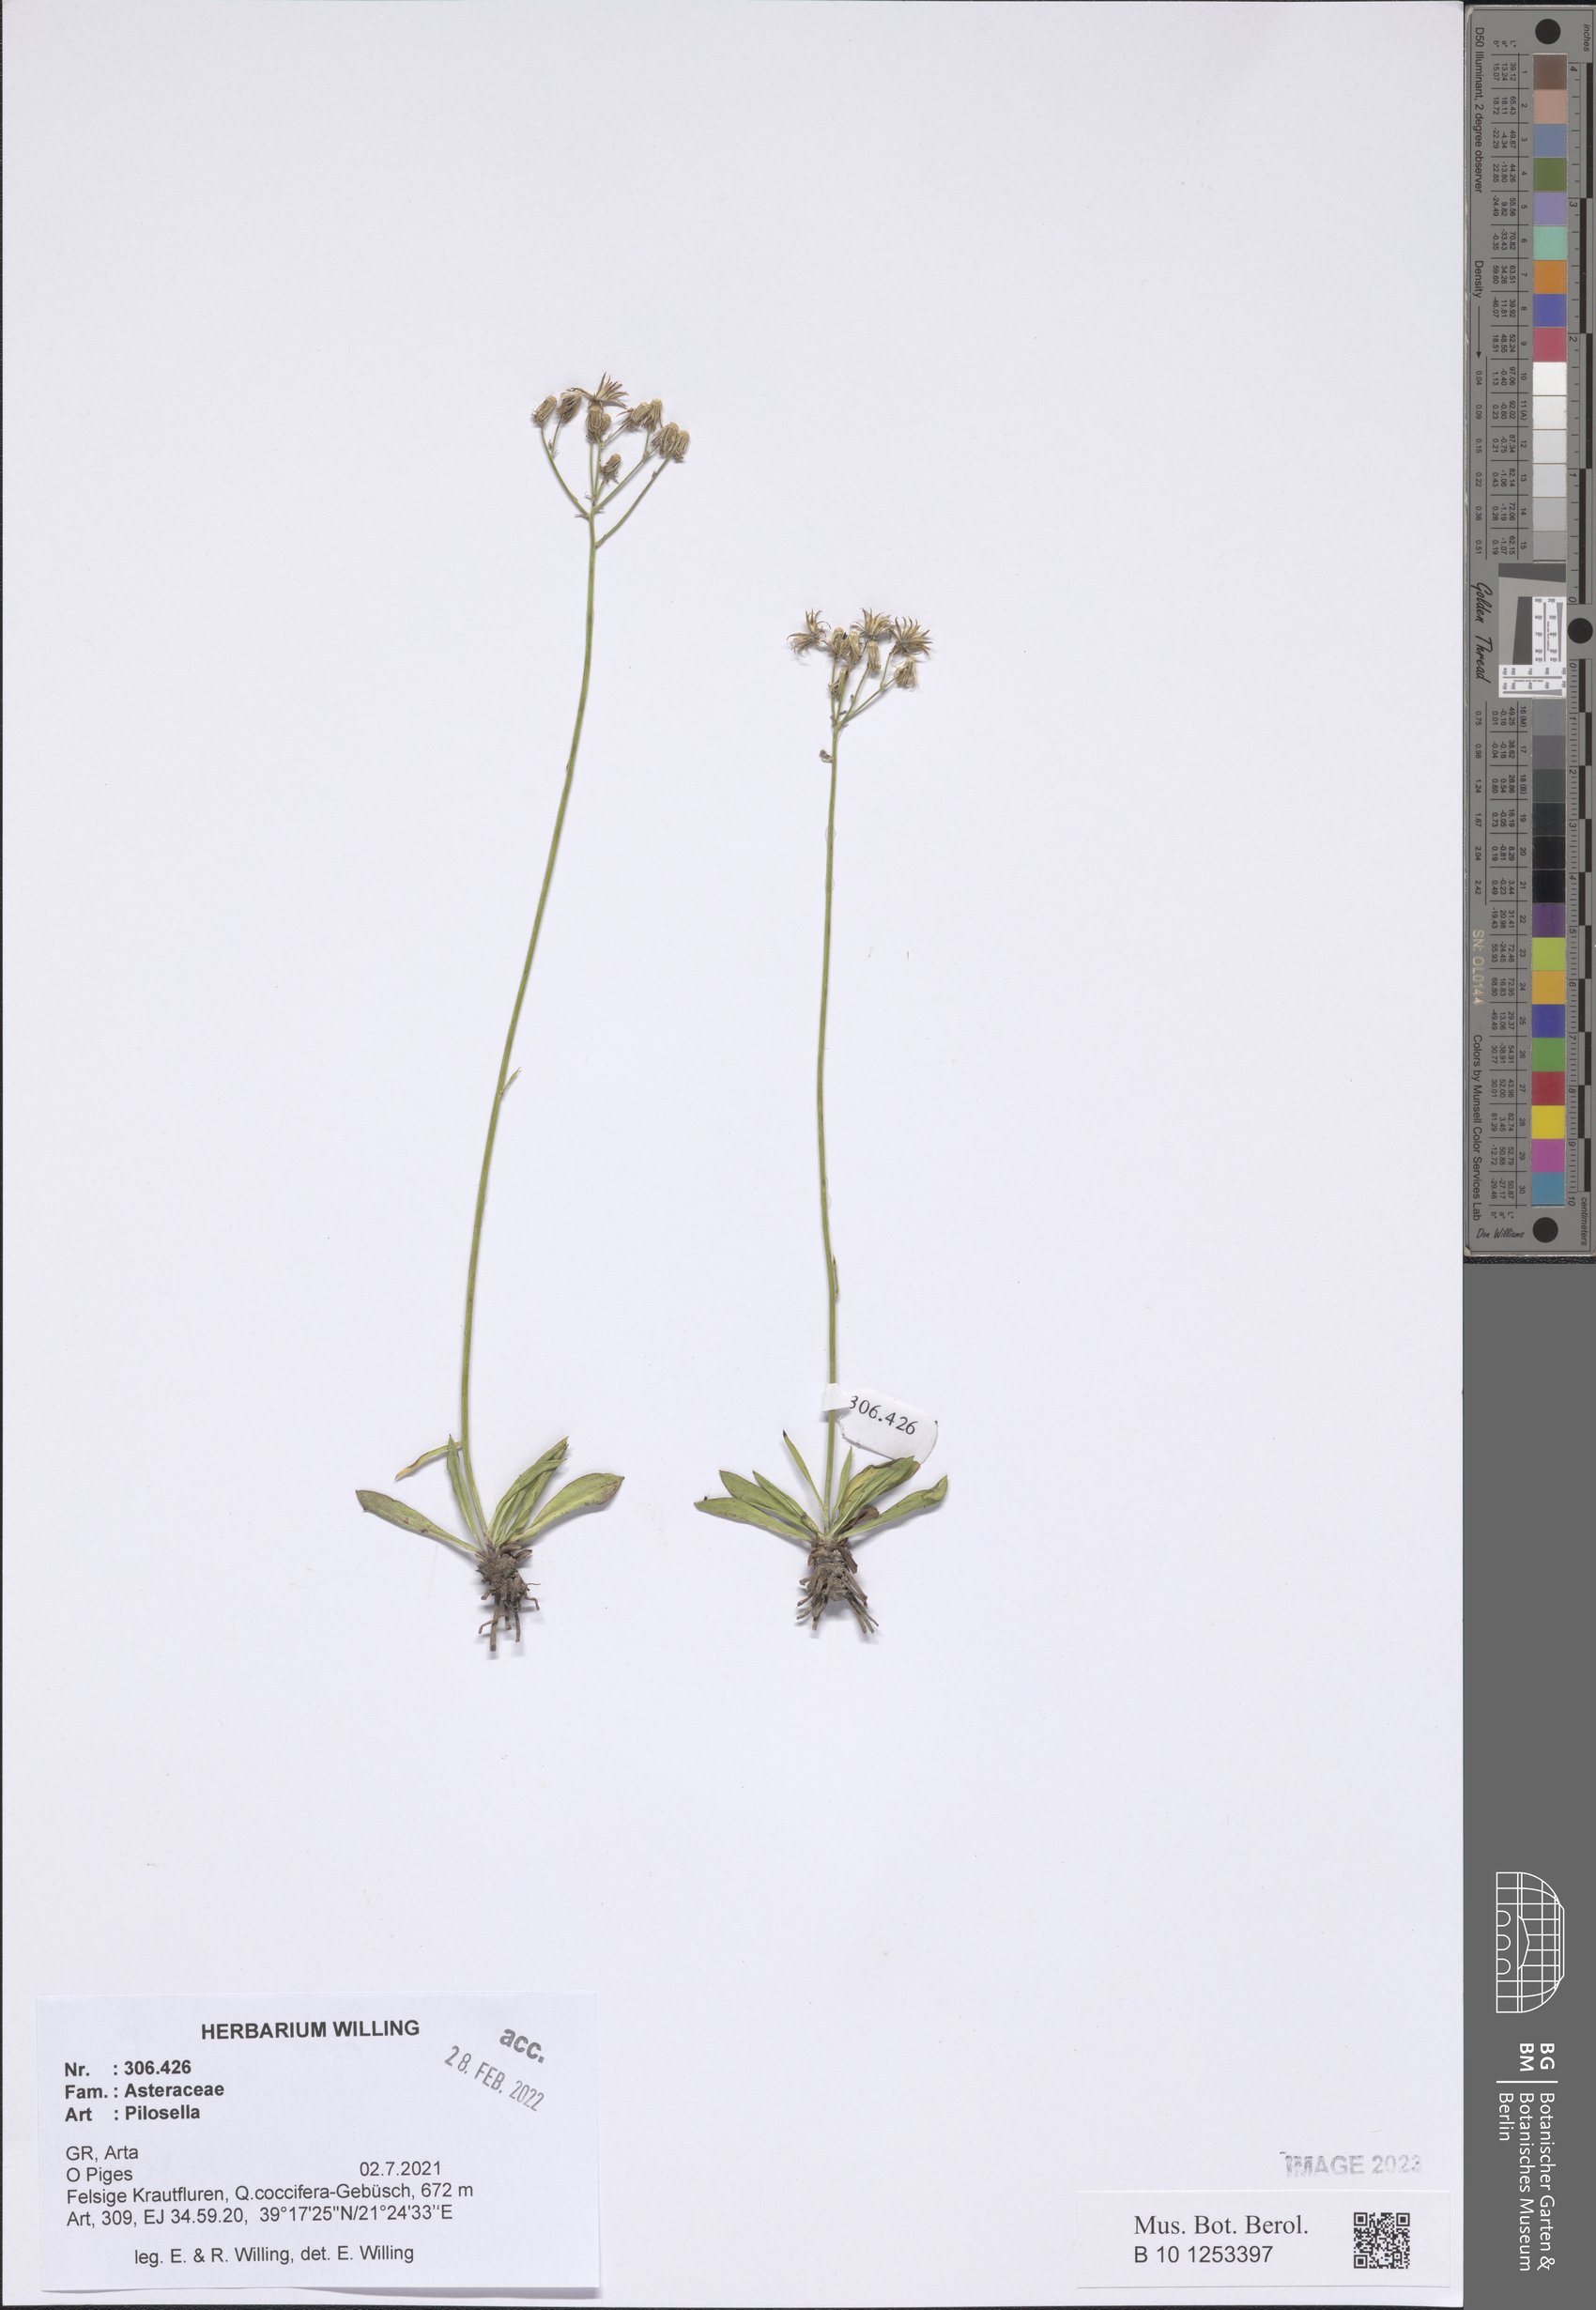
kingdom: Plantae
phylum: Tracheophyta
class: Magnoliopsida
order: Asterales
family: Asteraceae
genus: Pilosella
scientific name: Pilosella
